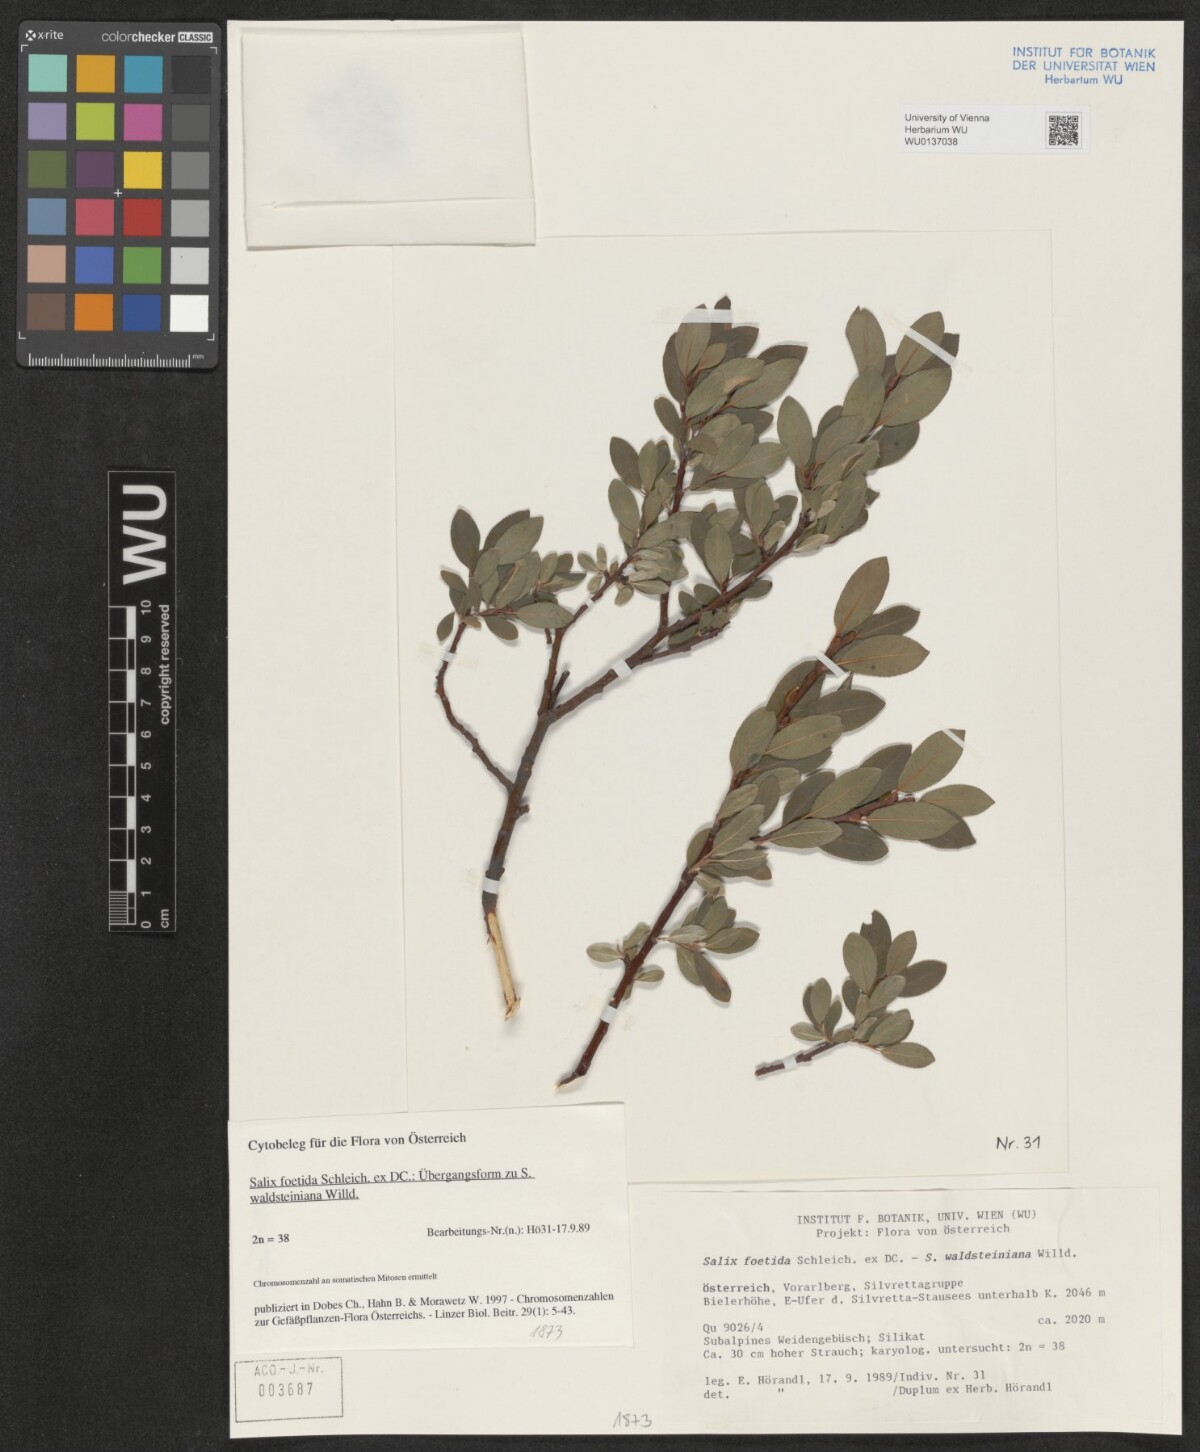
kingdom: Plantae
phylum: Tracheophyta
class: Magnoliopsida
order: Malpighiales
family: Salicaceae
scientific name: Salicaceae
